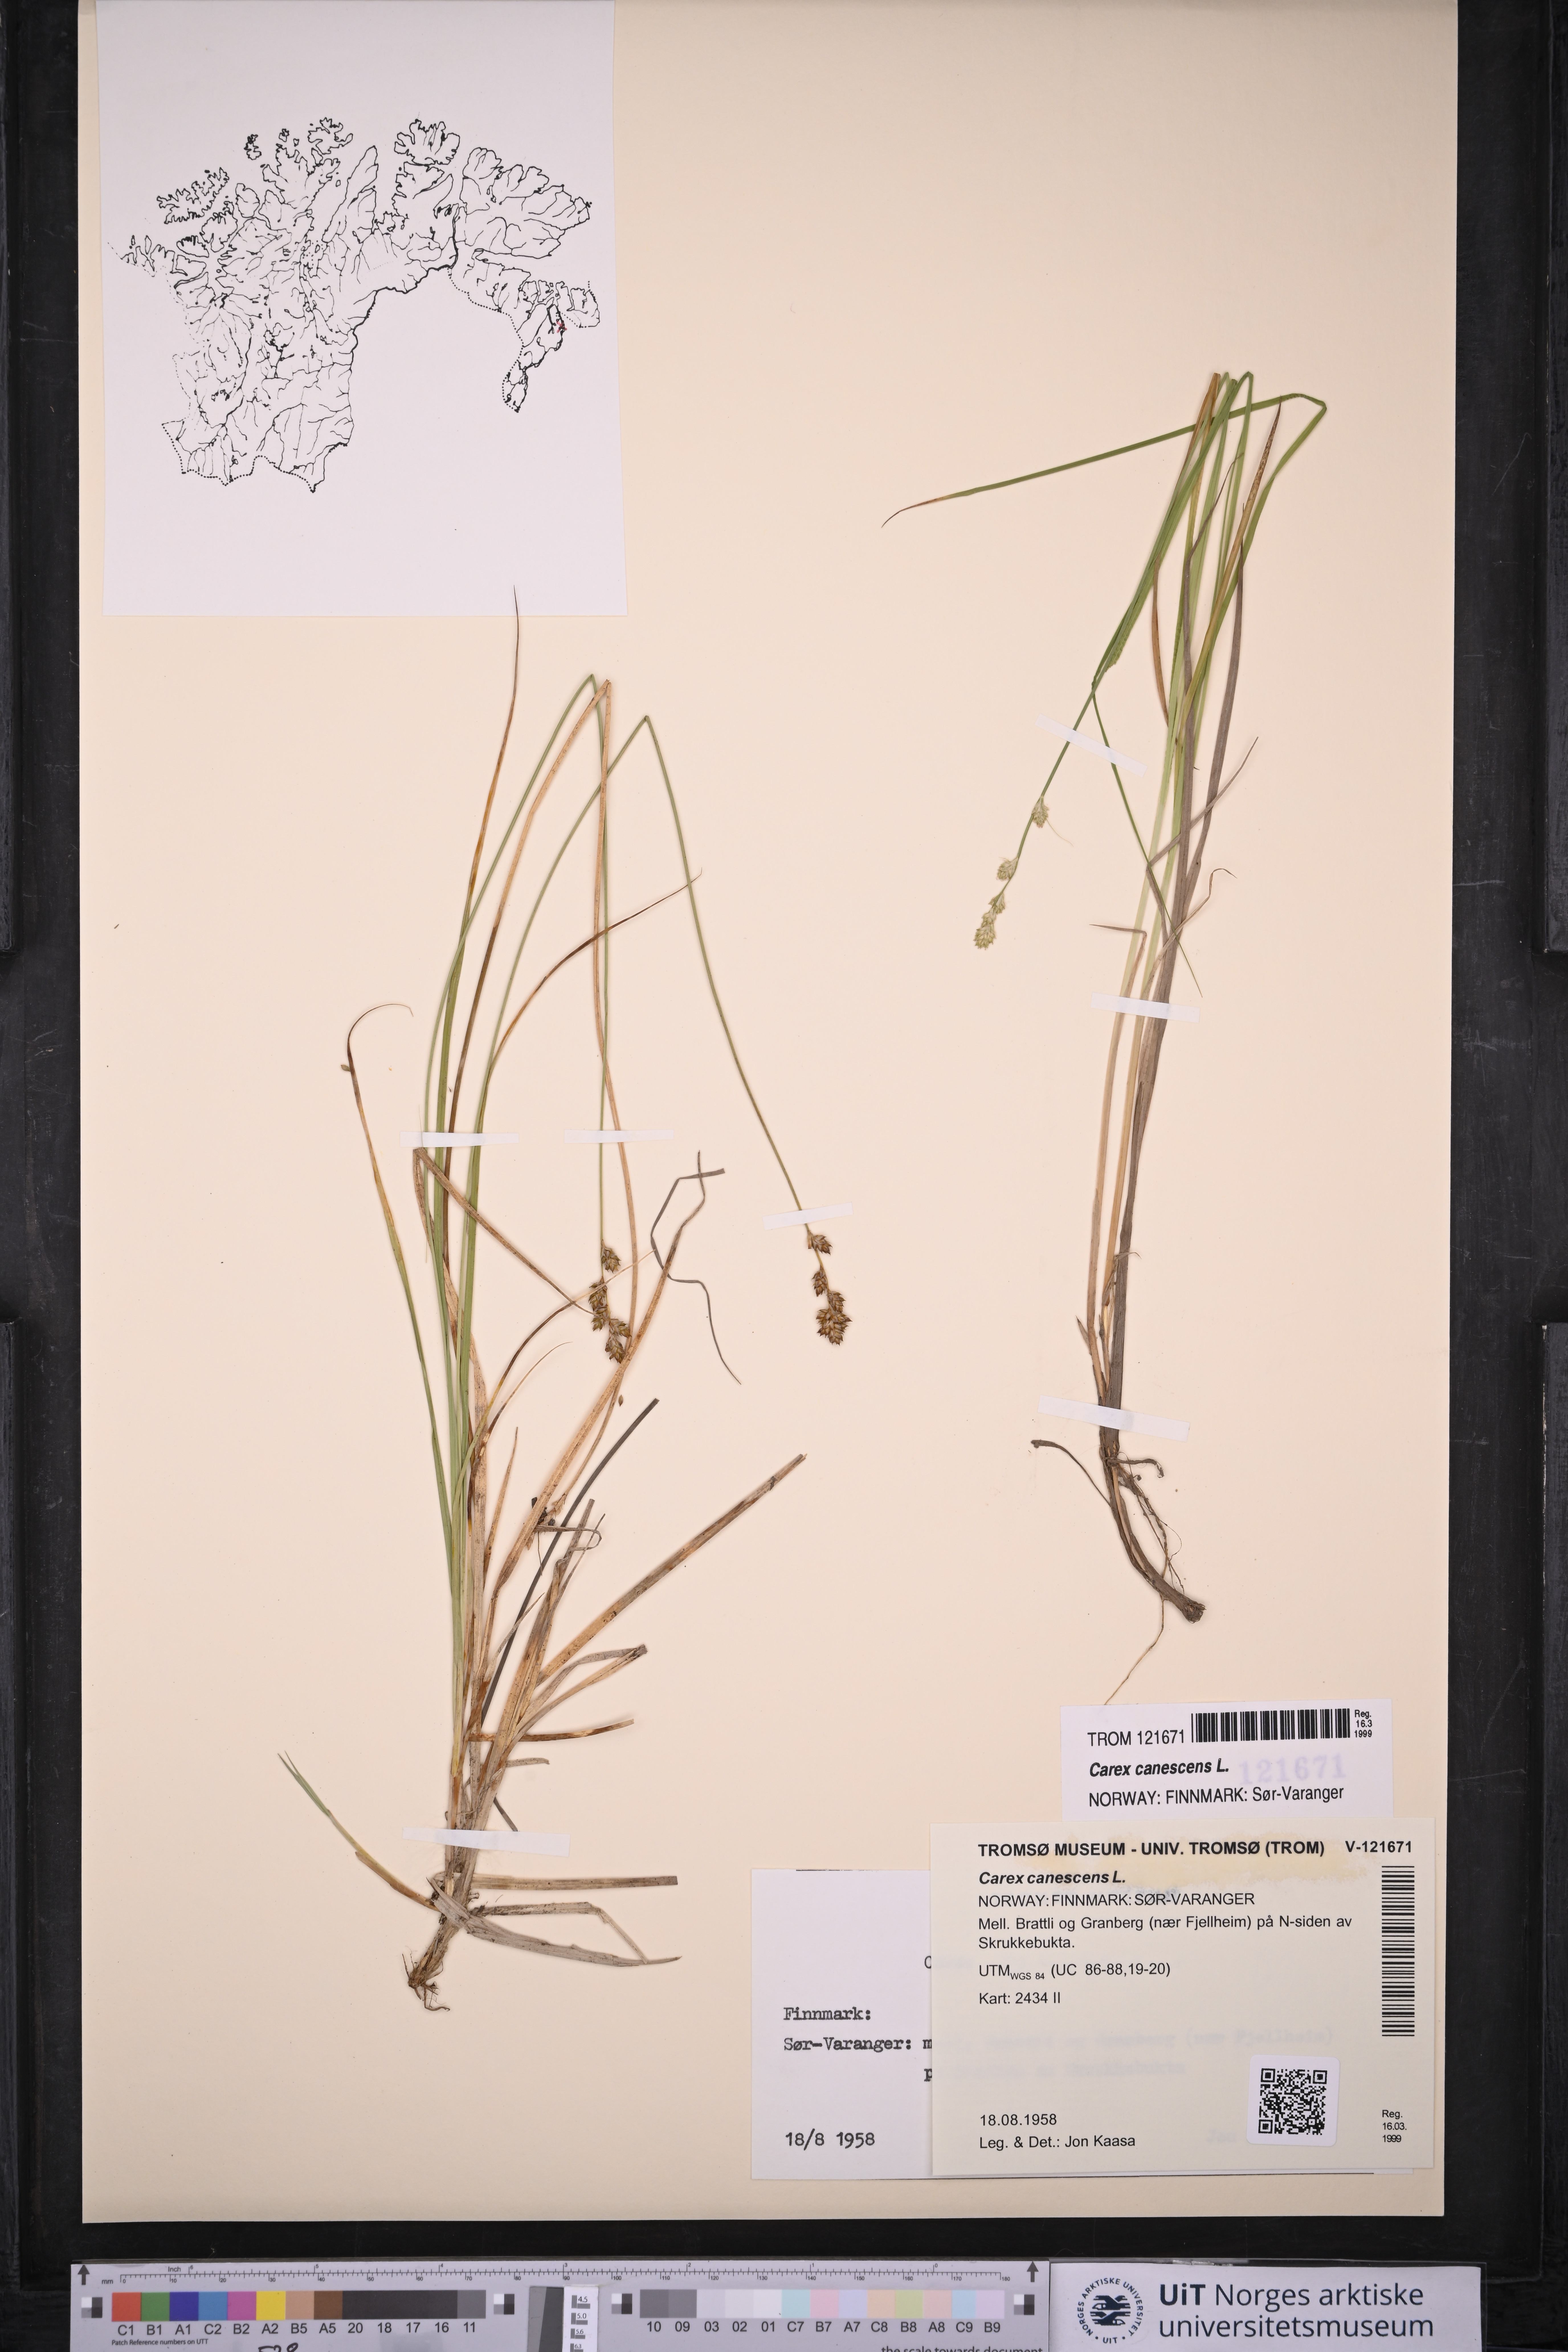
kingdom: Plantae
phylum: Tracheophyta
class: Liliopsida
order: Poales
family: Cyperaceae
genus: Carex
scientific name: Carex canescens
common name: White sedge
